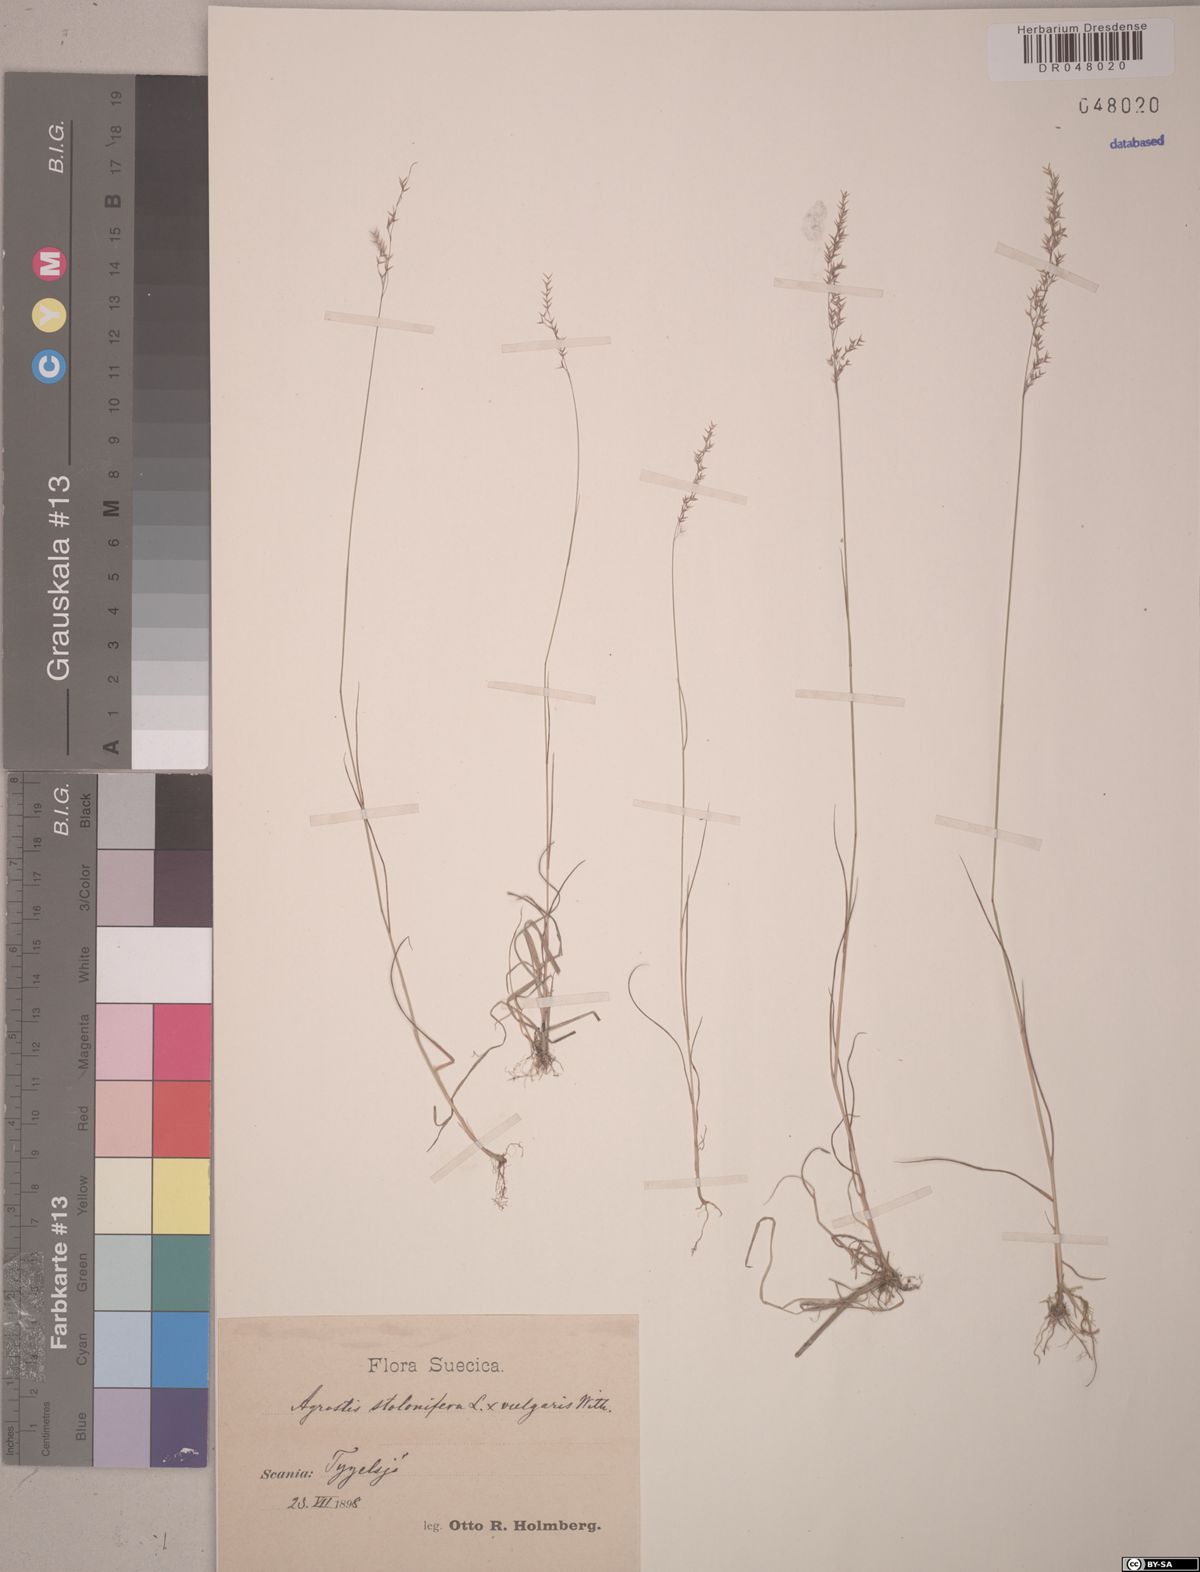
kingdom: Plantae
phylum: Tracheophyta
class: Liliopsida
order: Poales
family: Poaceae
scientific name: Poaceae
